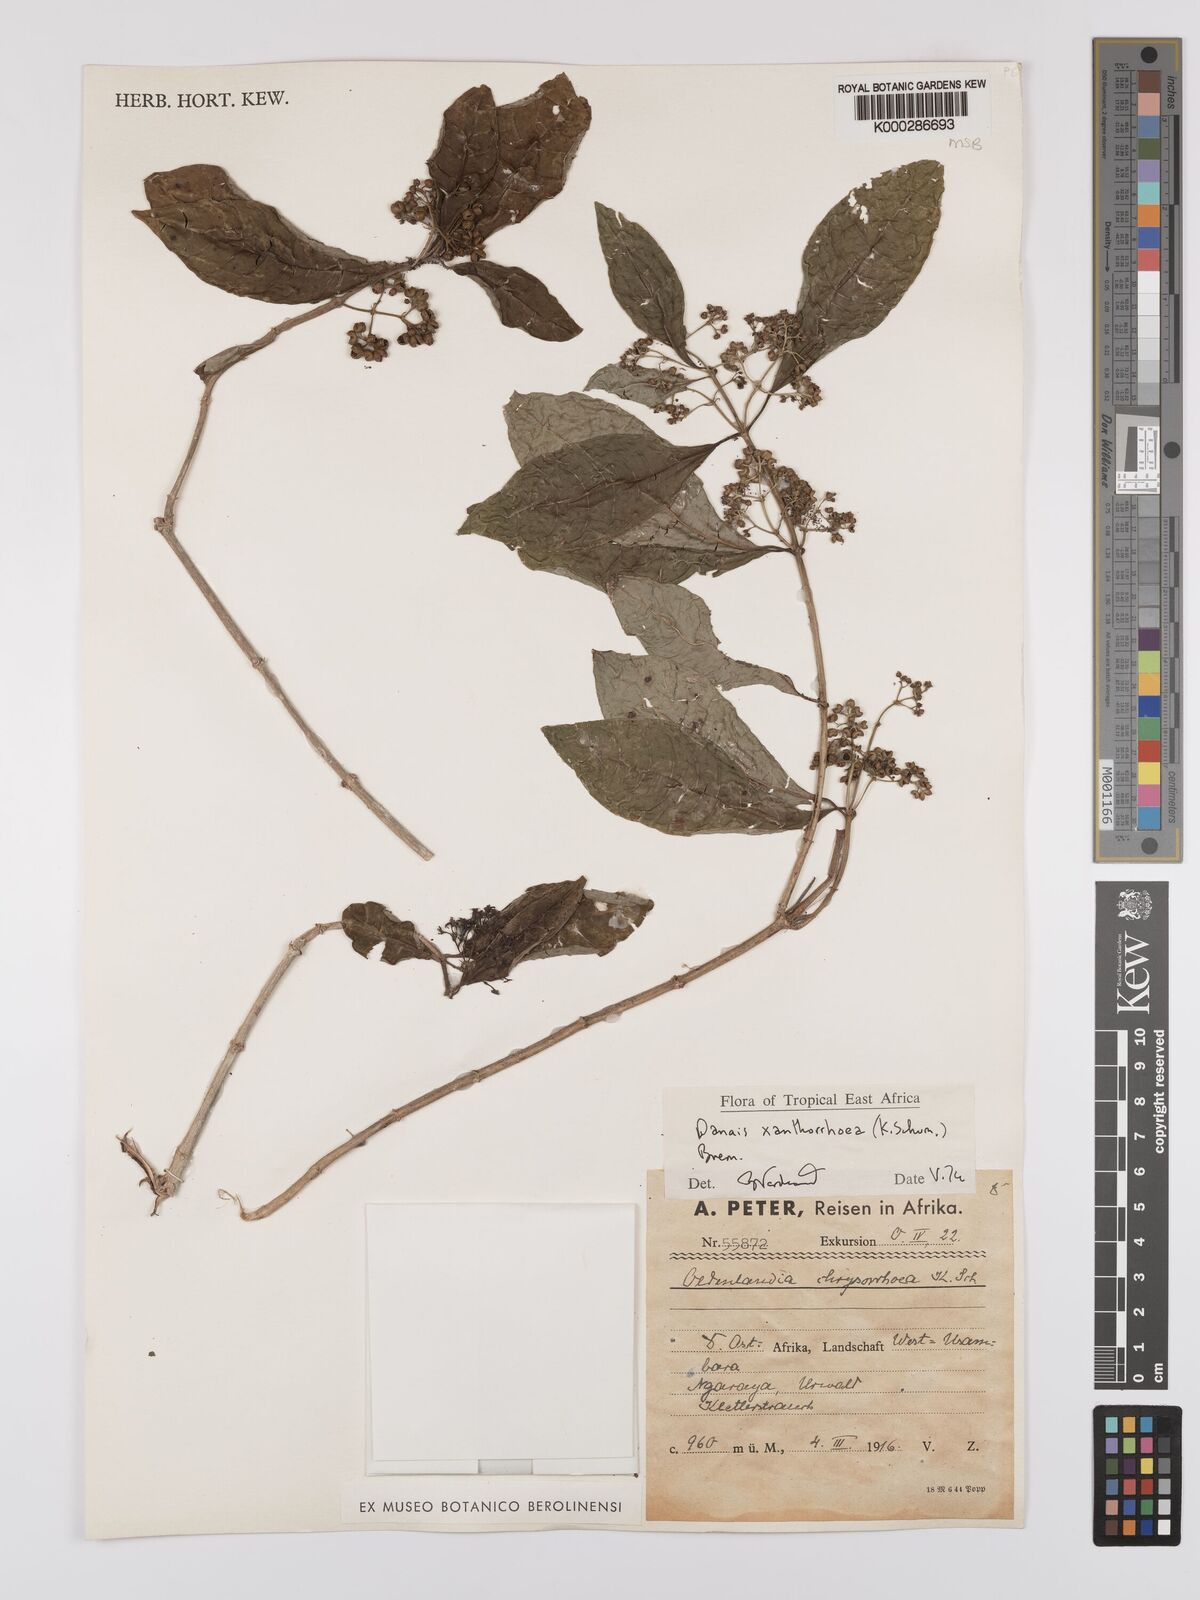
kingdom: Plantae
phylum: Tracheophyta
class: Magnoliopsida
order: Gentianales
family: Rubiaceae
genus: Danais
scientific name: Danais xanthorrhoea
